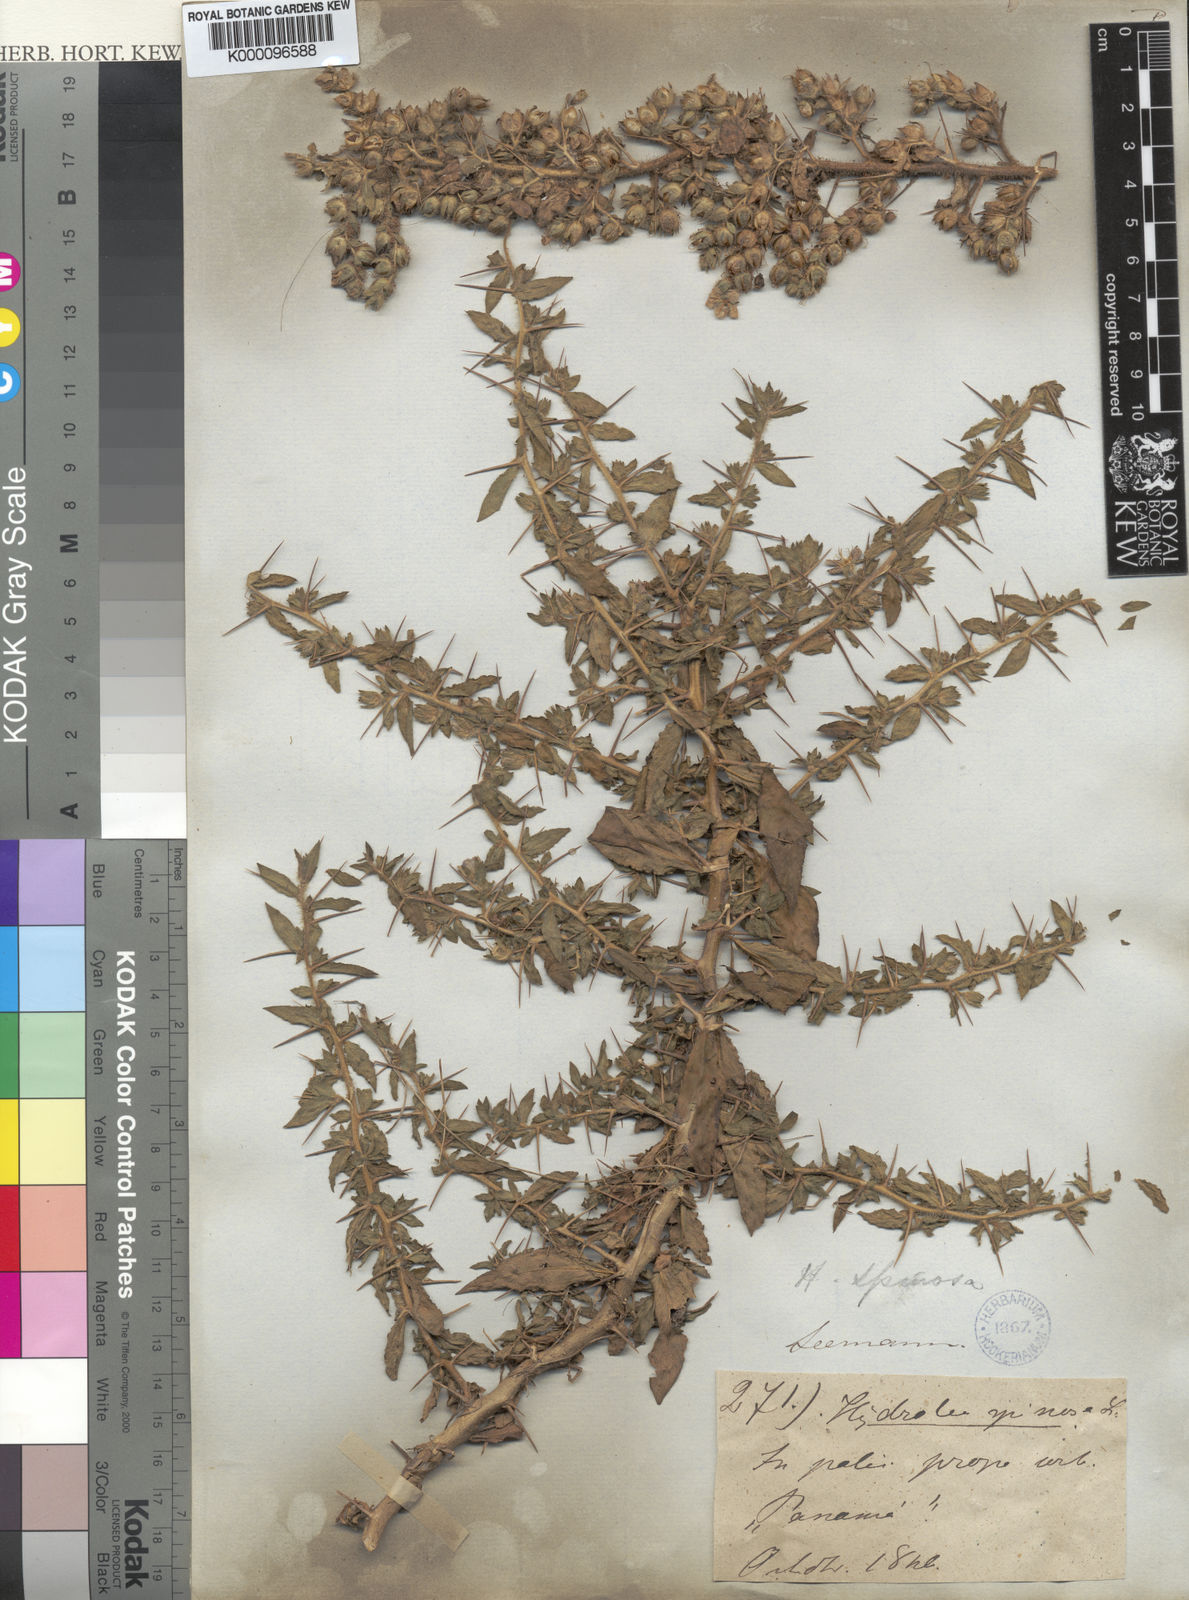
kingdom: Plantae
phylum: Tracheophyta
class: Magnoliopsida
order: Solanales
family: Hydroleaceae
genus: Hydrolea
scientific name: Hydrolea spinosa
